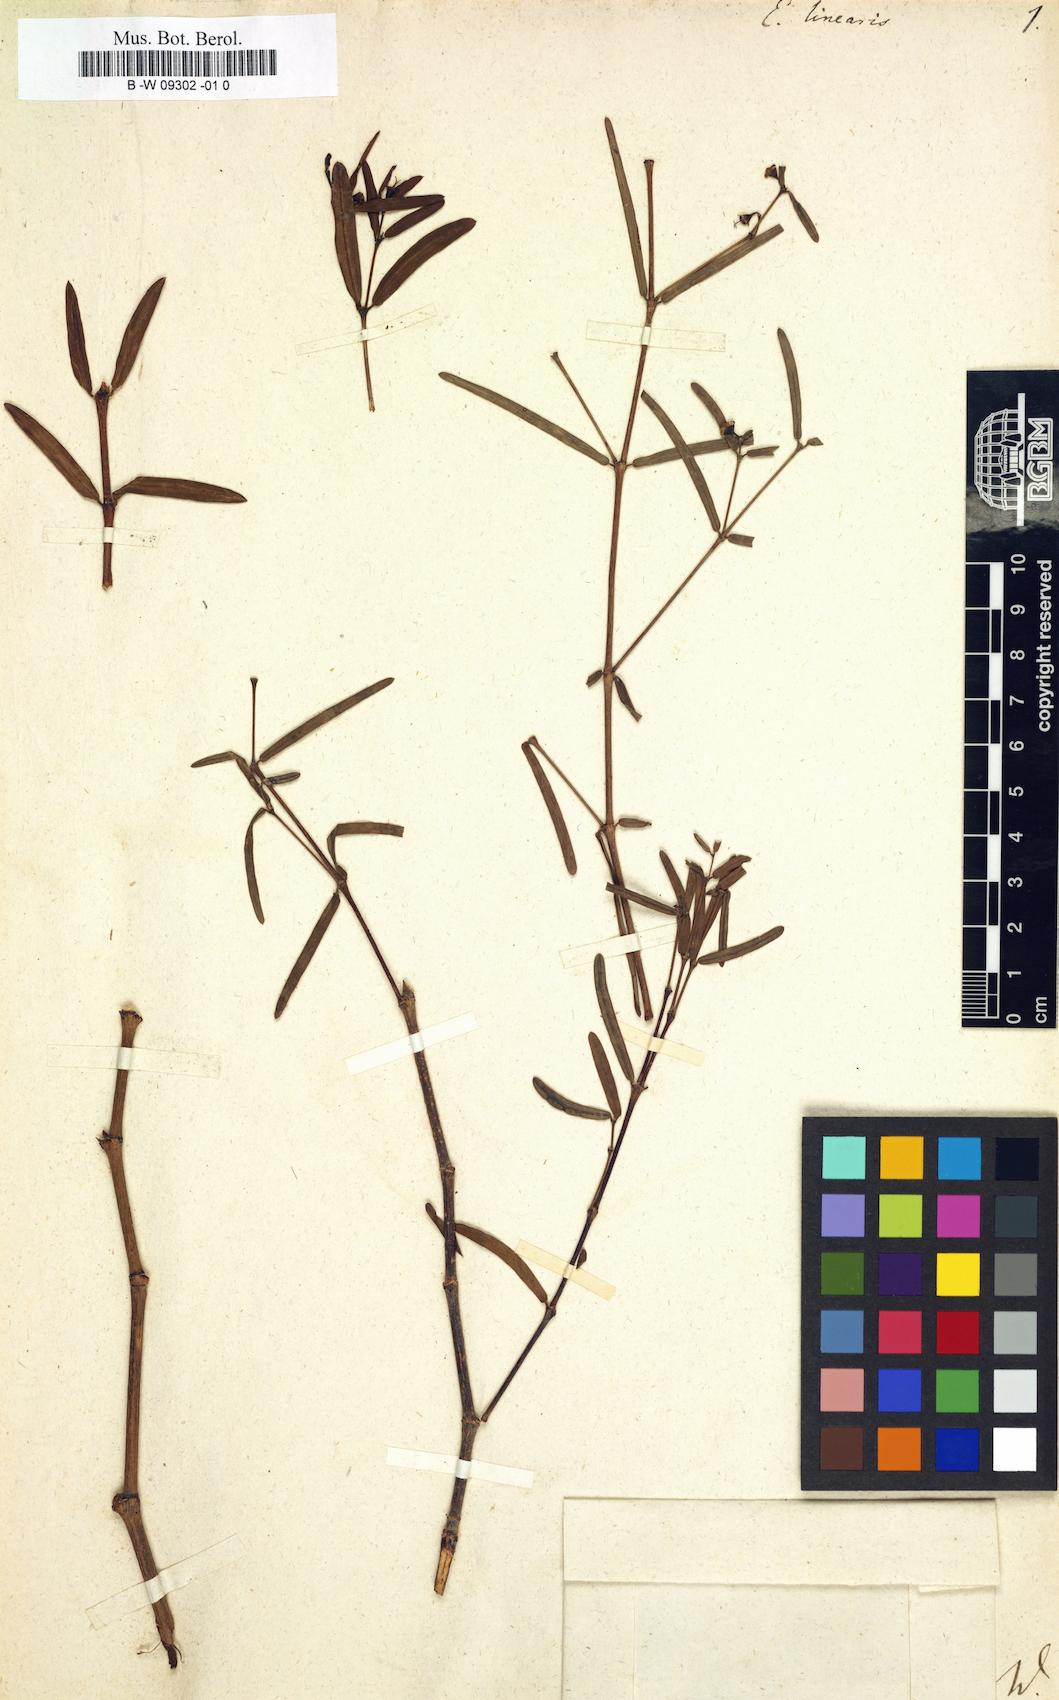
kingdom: Plantae
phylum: Tracheophyta
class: Magnoliopsida
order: Malpighiales
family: Euphorbiaceae
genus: Euphorbia
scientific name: Euphorbia articulata
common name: Jointed sandmat
